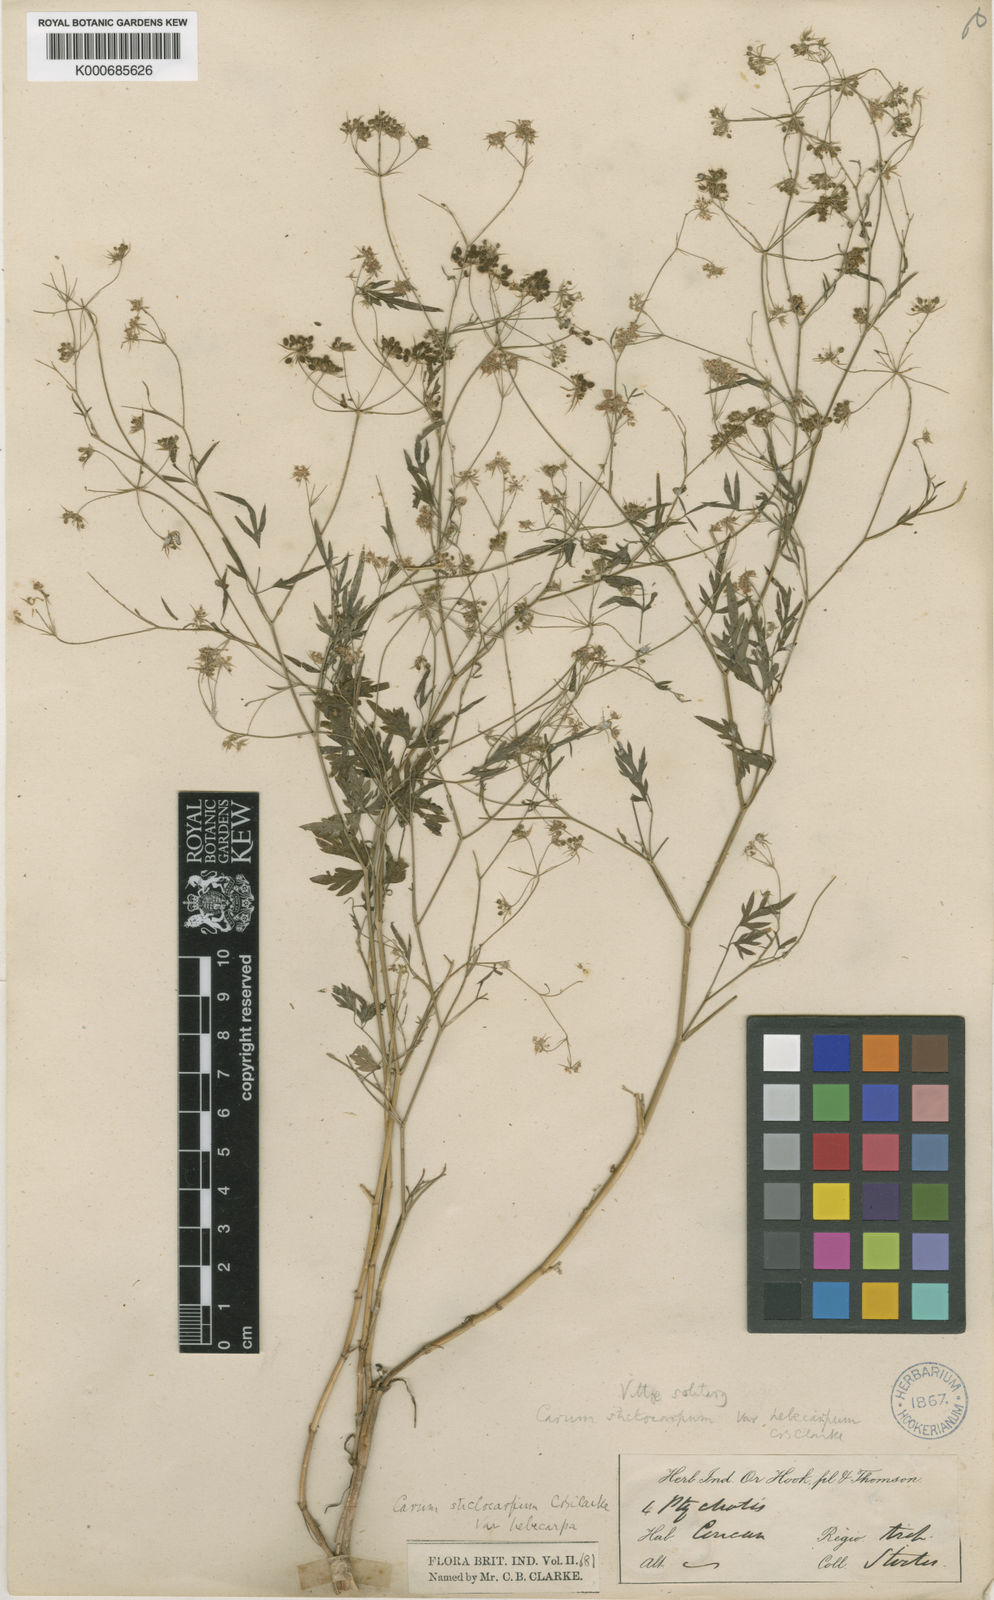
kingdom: Plantae
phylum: Tracheophyta
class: Magnoliopsida
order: Apiales
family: Apiaceae
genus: Psammogeton
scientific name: Psammogeton involucratum
